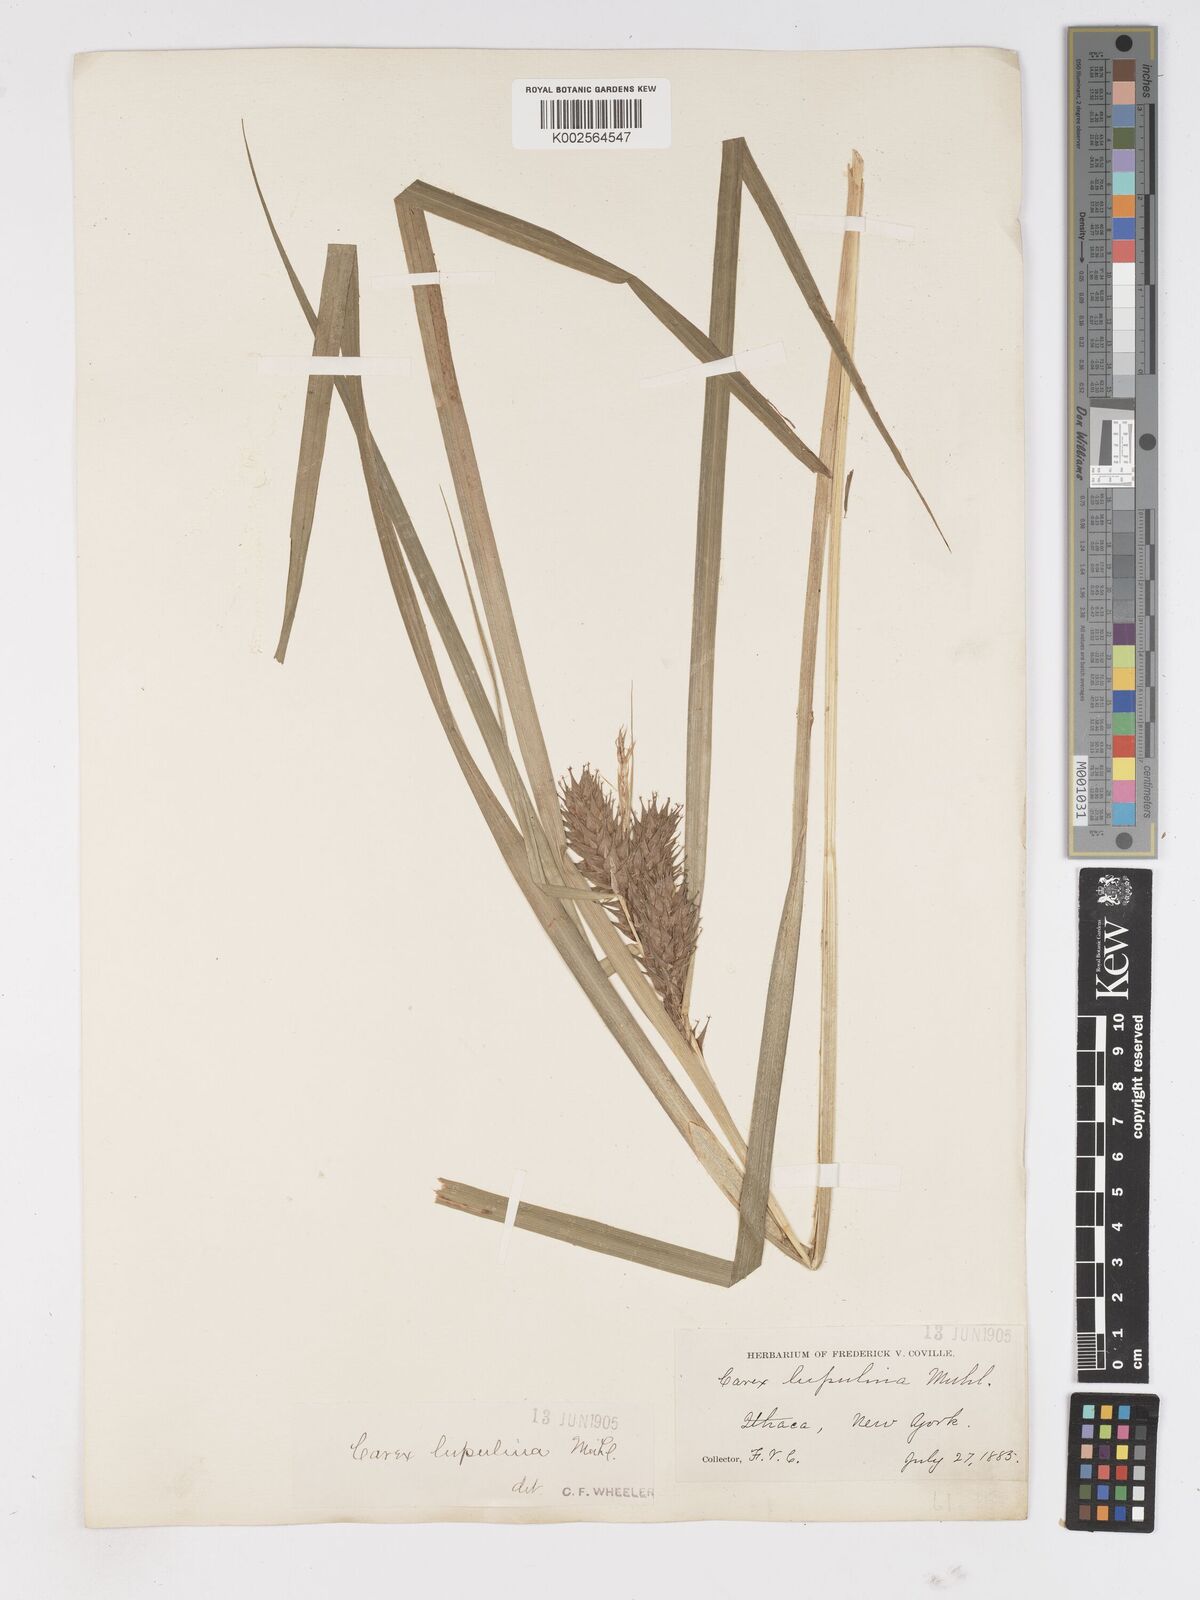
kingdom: Plantae
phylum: Tracheophyta
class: Liliopsida
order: Poales
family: Cyperaceae
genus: Carex
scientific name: Carex lupulina
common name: Hop sedge
